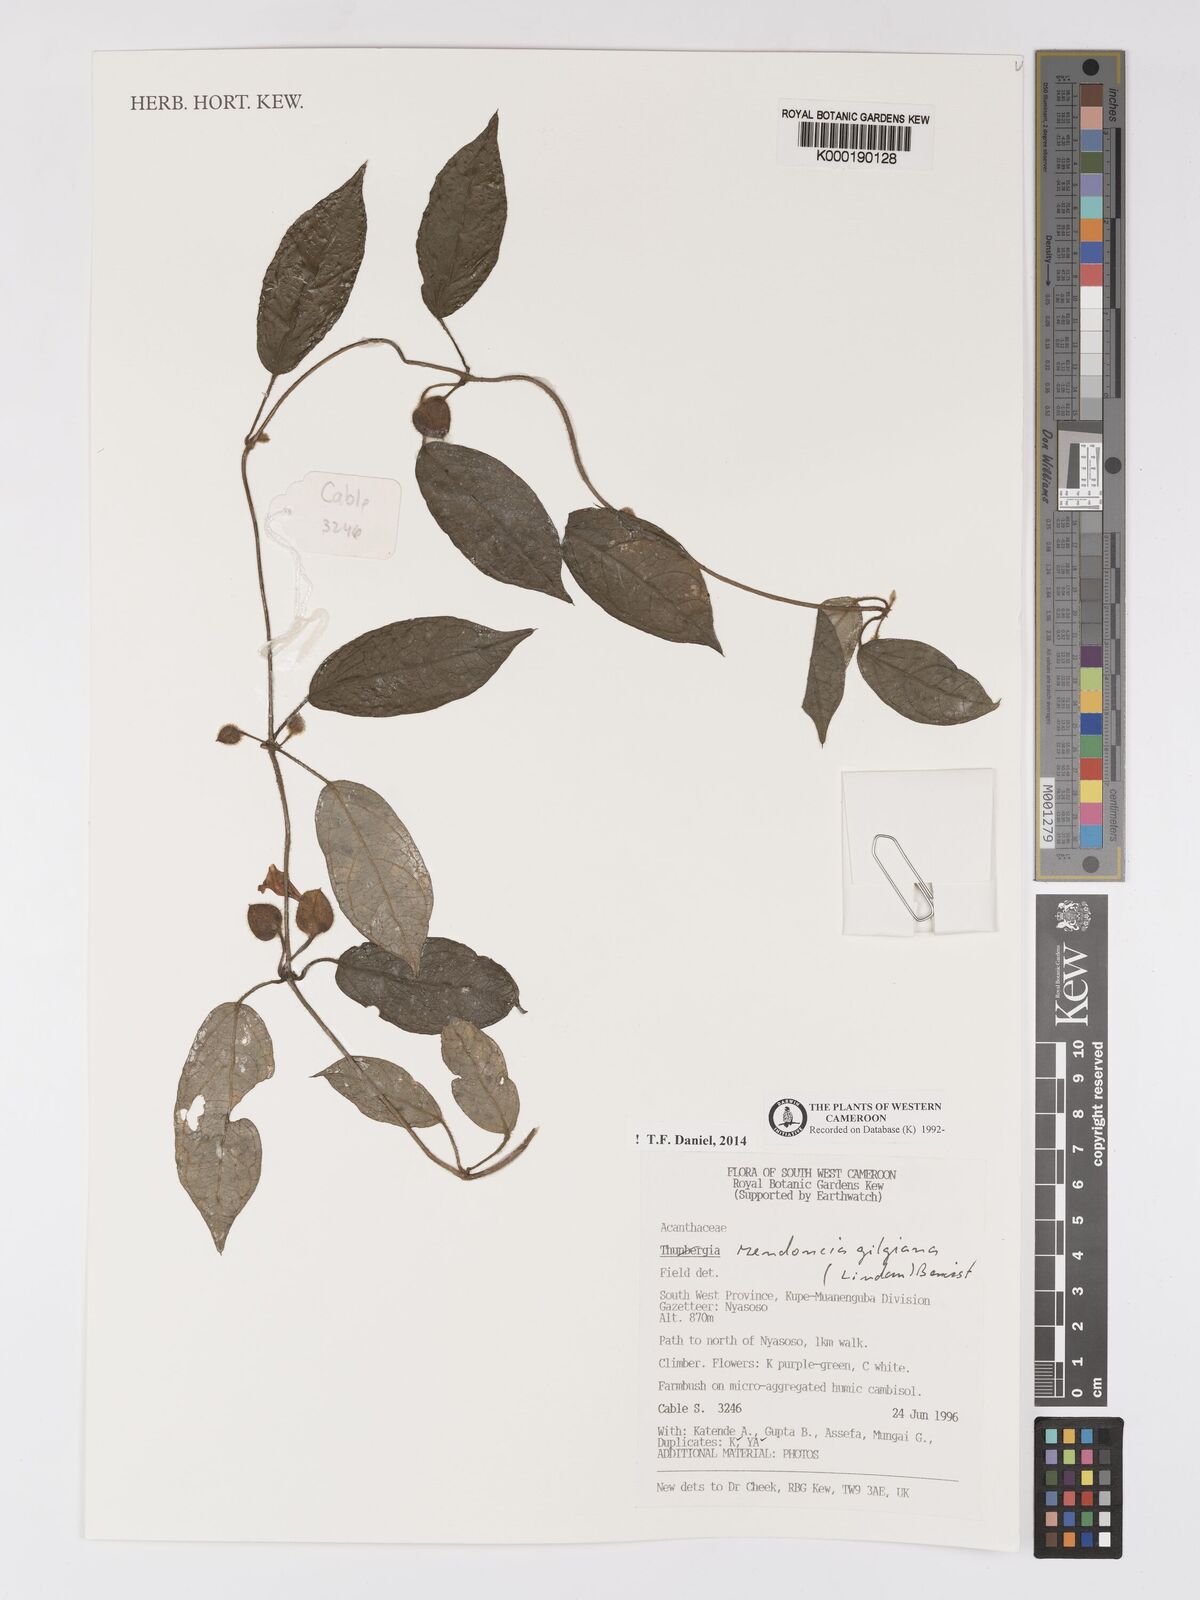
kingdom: Plantae
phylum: Tracheophyta
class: Magnoliopsida
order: Lamiales
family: Acanthaceae
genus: Mendoncia
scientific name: Mendoncia gilgiana
